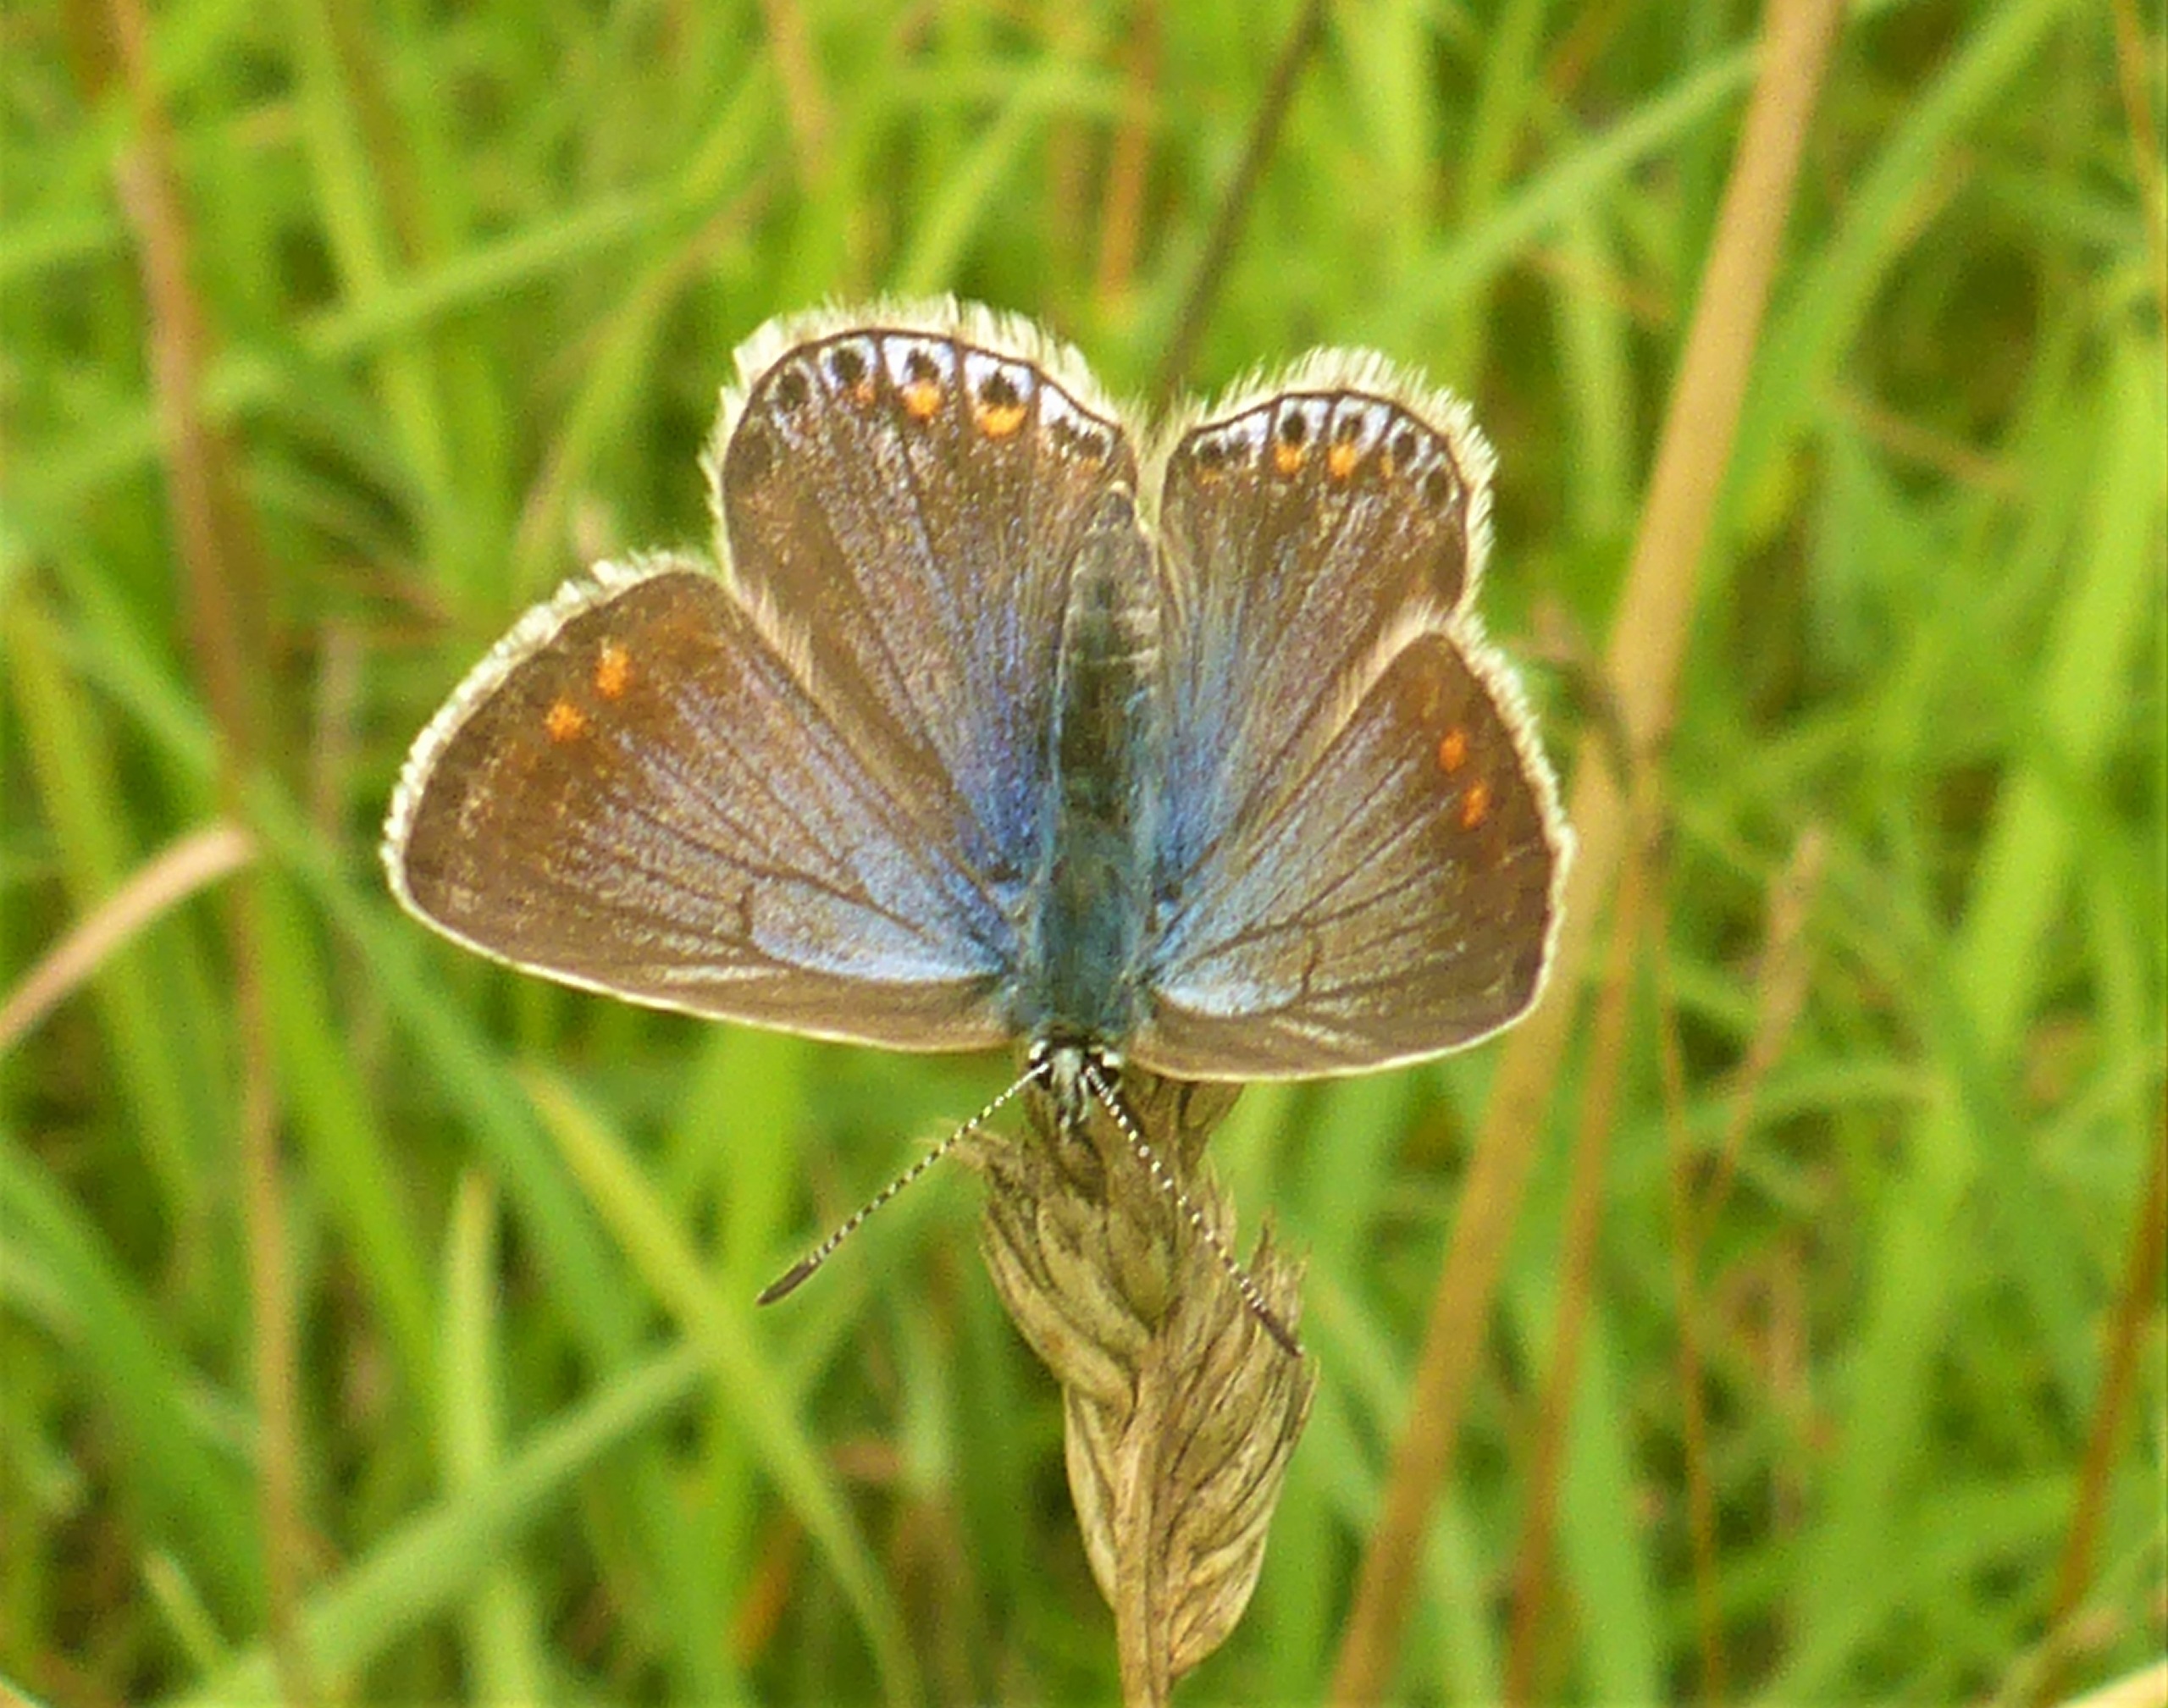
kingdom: Animalia
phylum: Arthropoda
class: Insecta
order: Lepidoptera
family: Lycaenidae
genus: Polyommatus
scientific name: Polyommatus icarus
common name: Almindelig blåfugl
